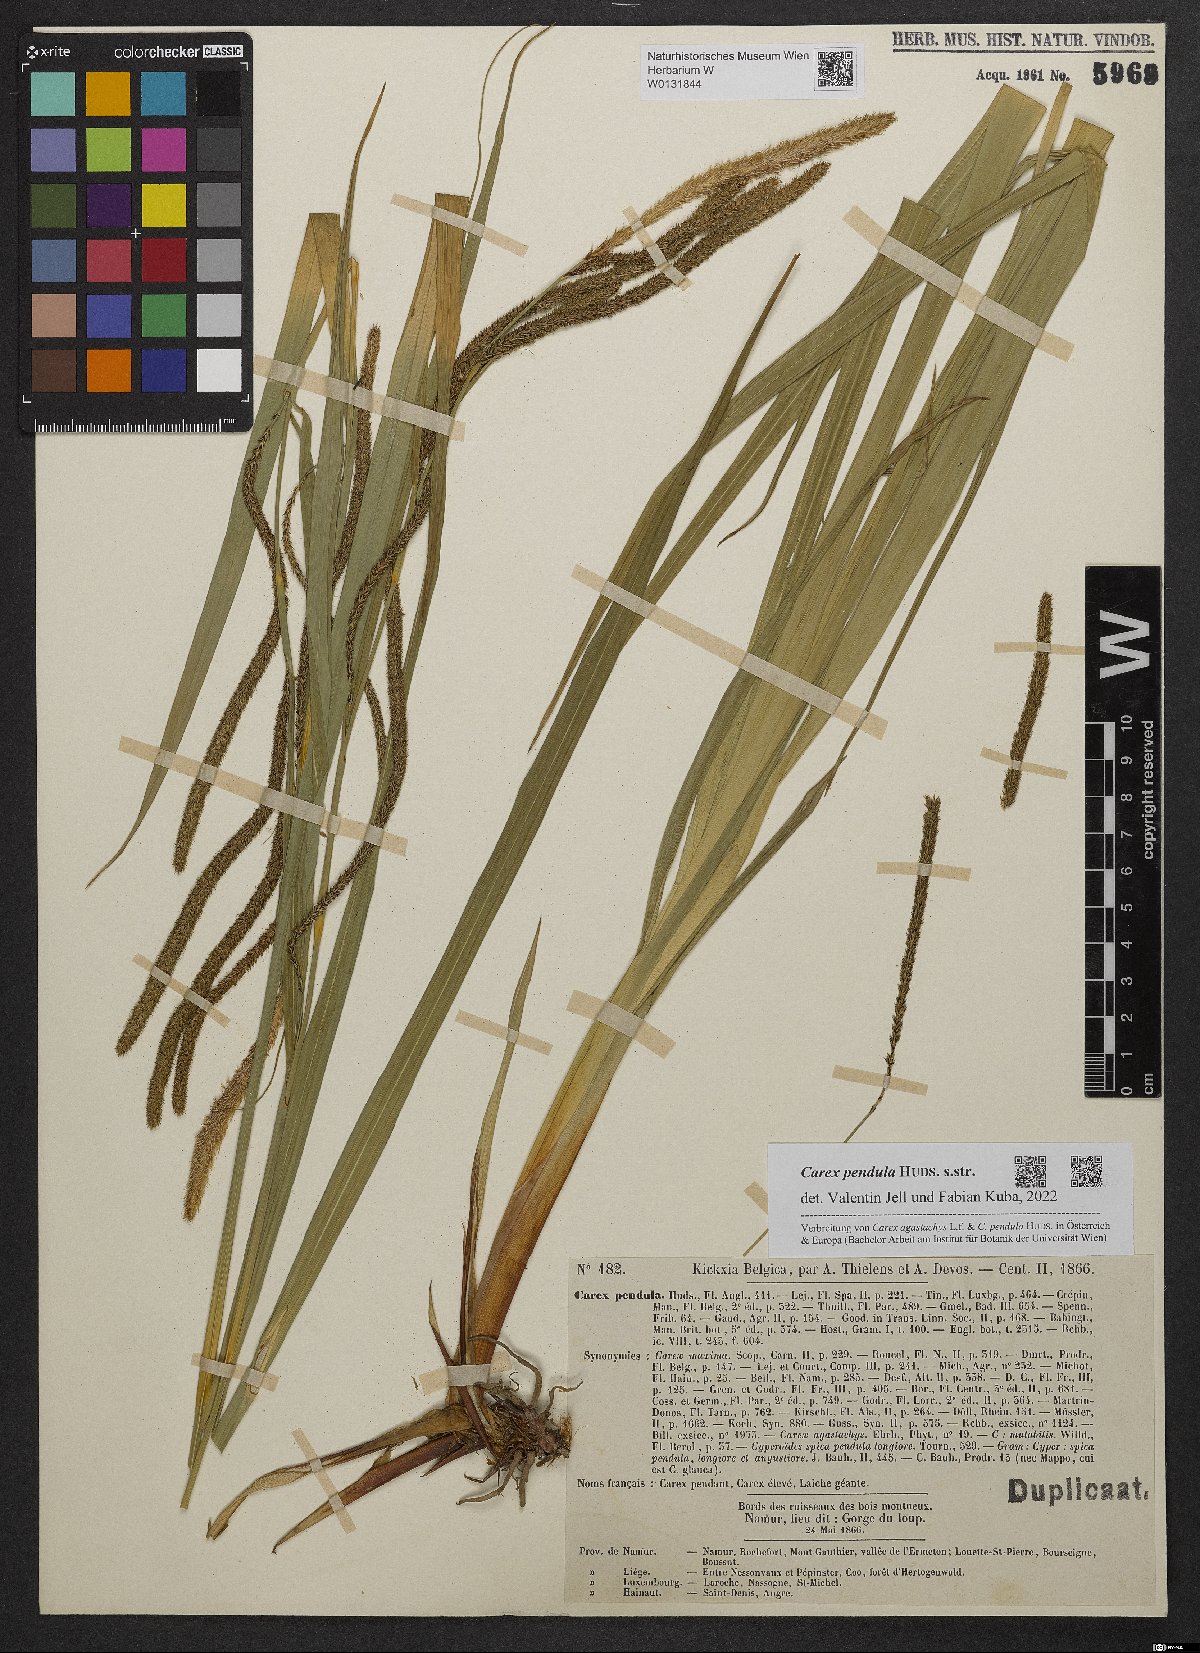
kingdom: Plantae
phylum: Tracheophyta
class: Liliopsida
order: Poales
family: Cyperaceae
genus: Carex
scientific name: Carex pendula
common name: Pendulous sedge
